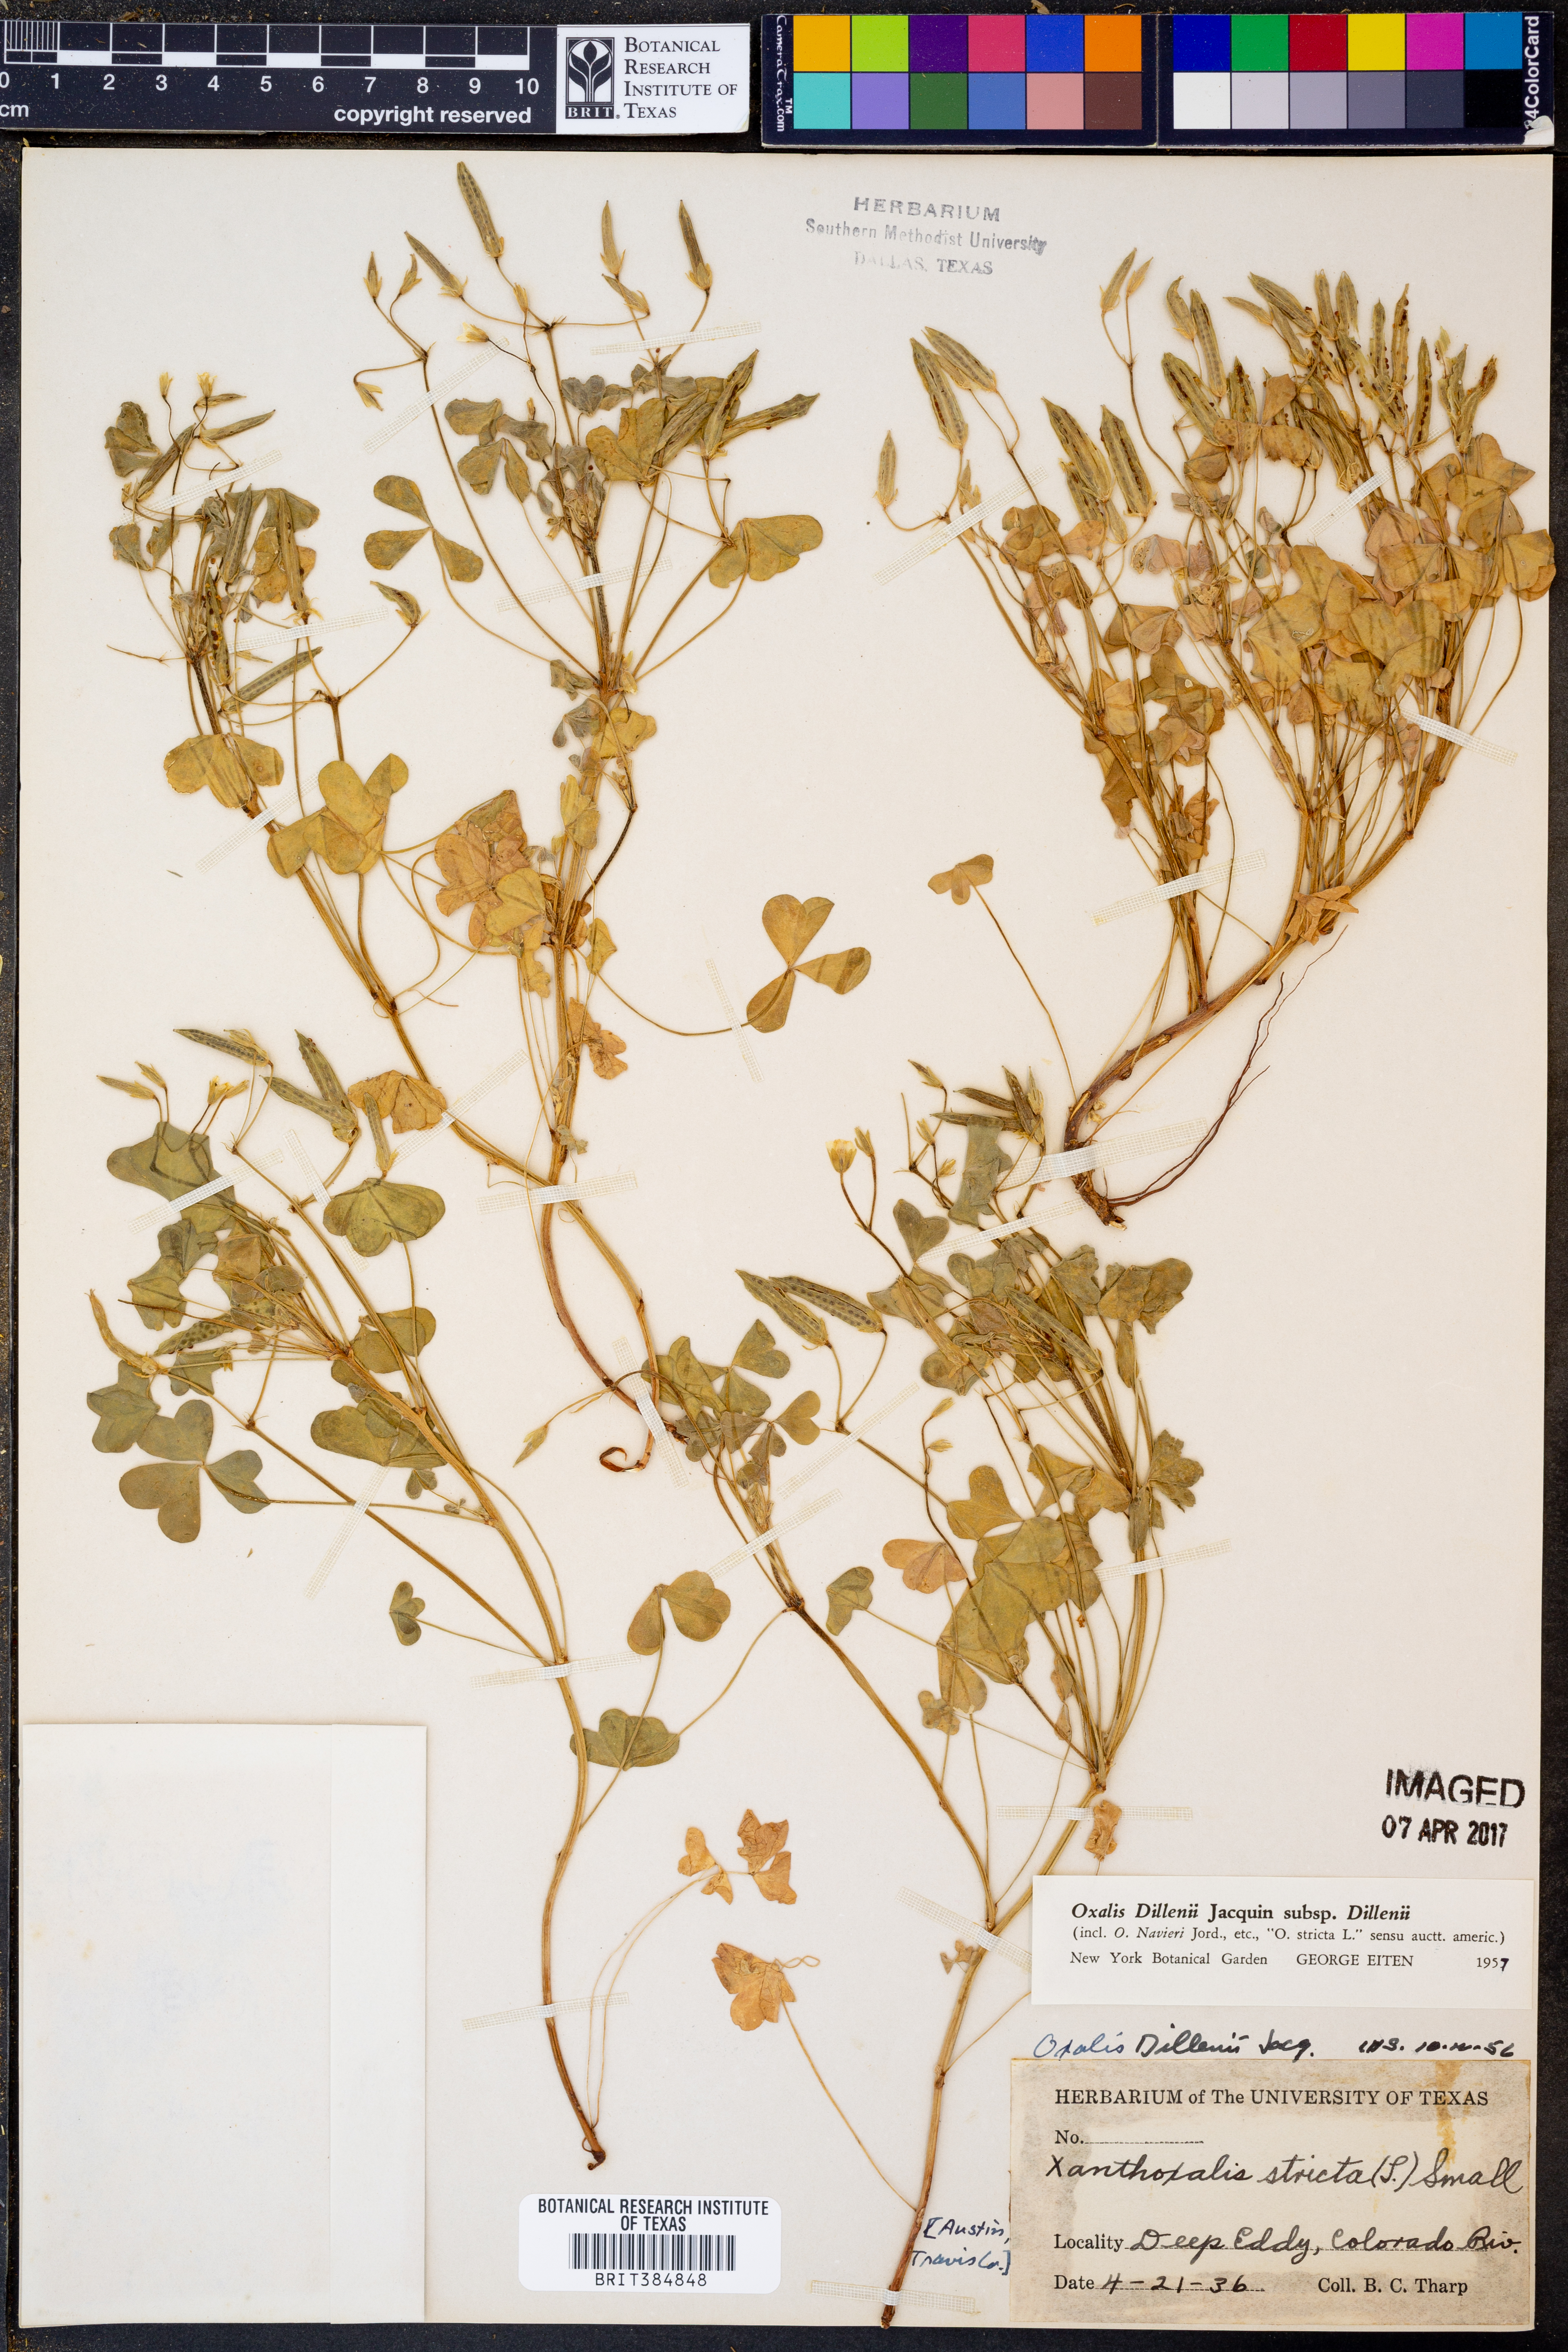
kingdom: Plantae
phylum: Tracheophyta
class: Magnoliopsida
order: Oxalidales
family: Oxalidaceae
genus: Oxalis
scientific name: Oxalis dillenii
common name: Sussex yellow-sorrel
